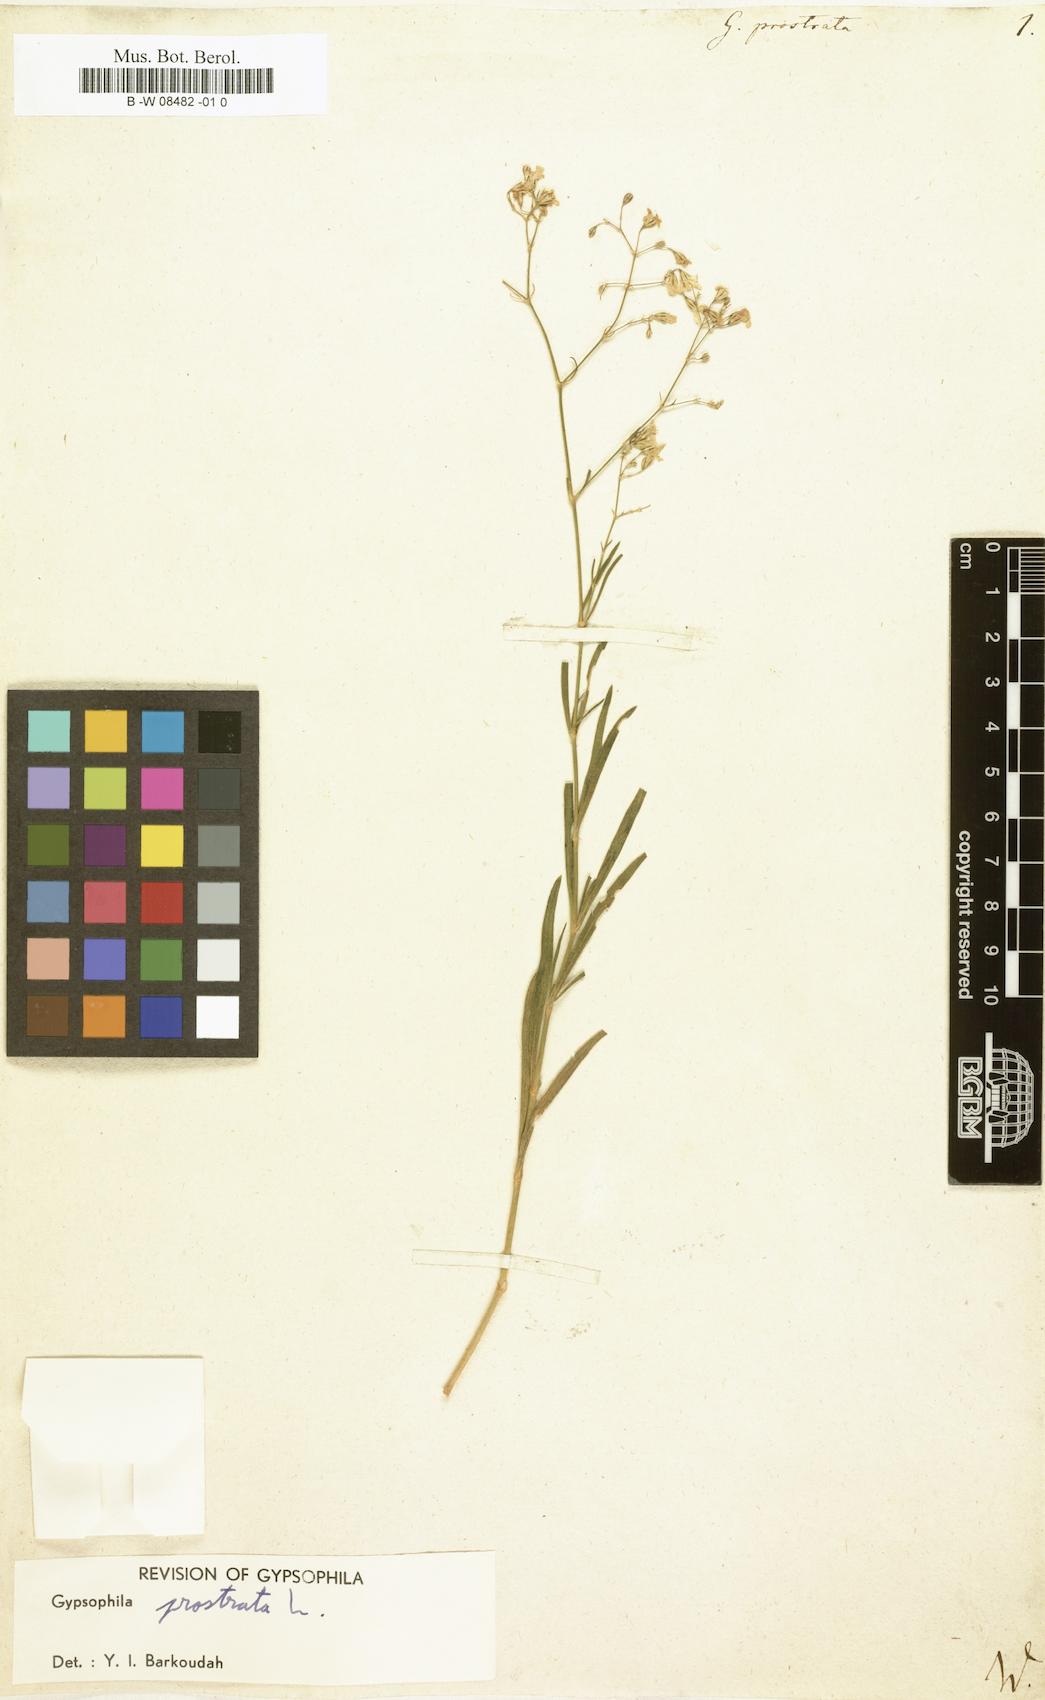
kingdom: Plantae
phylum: Tracheophyta
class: Magnoliopsida
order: Caryophyllales
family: Caryophyllaceae
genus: Gypsophila
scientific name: Gypsophila
